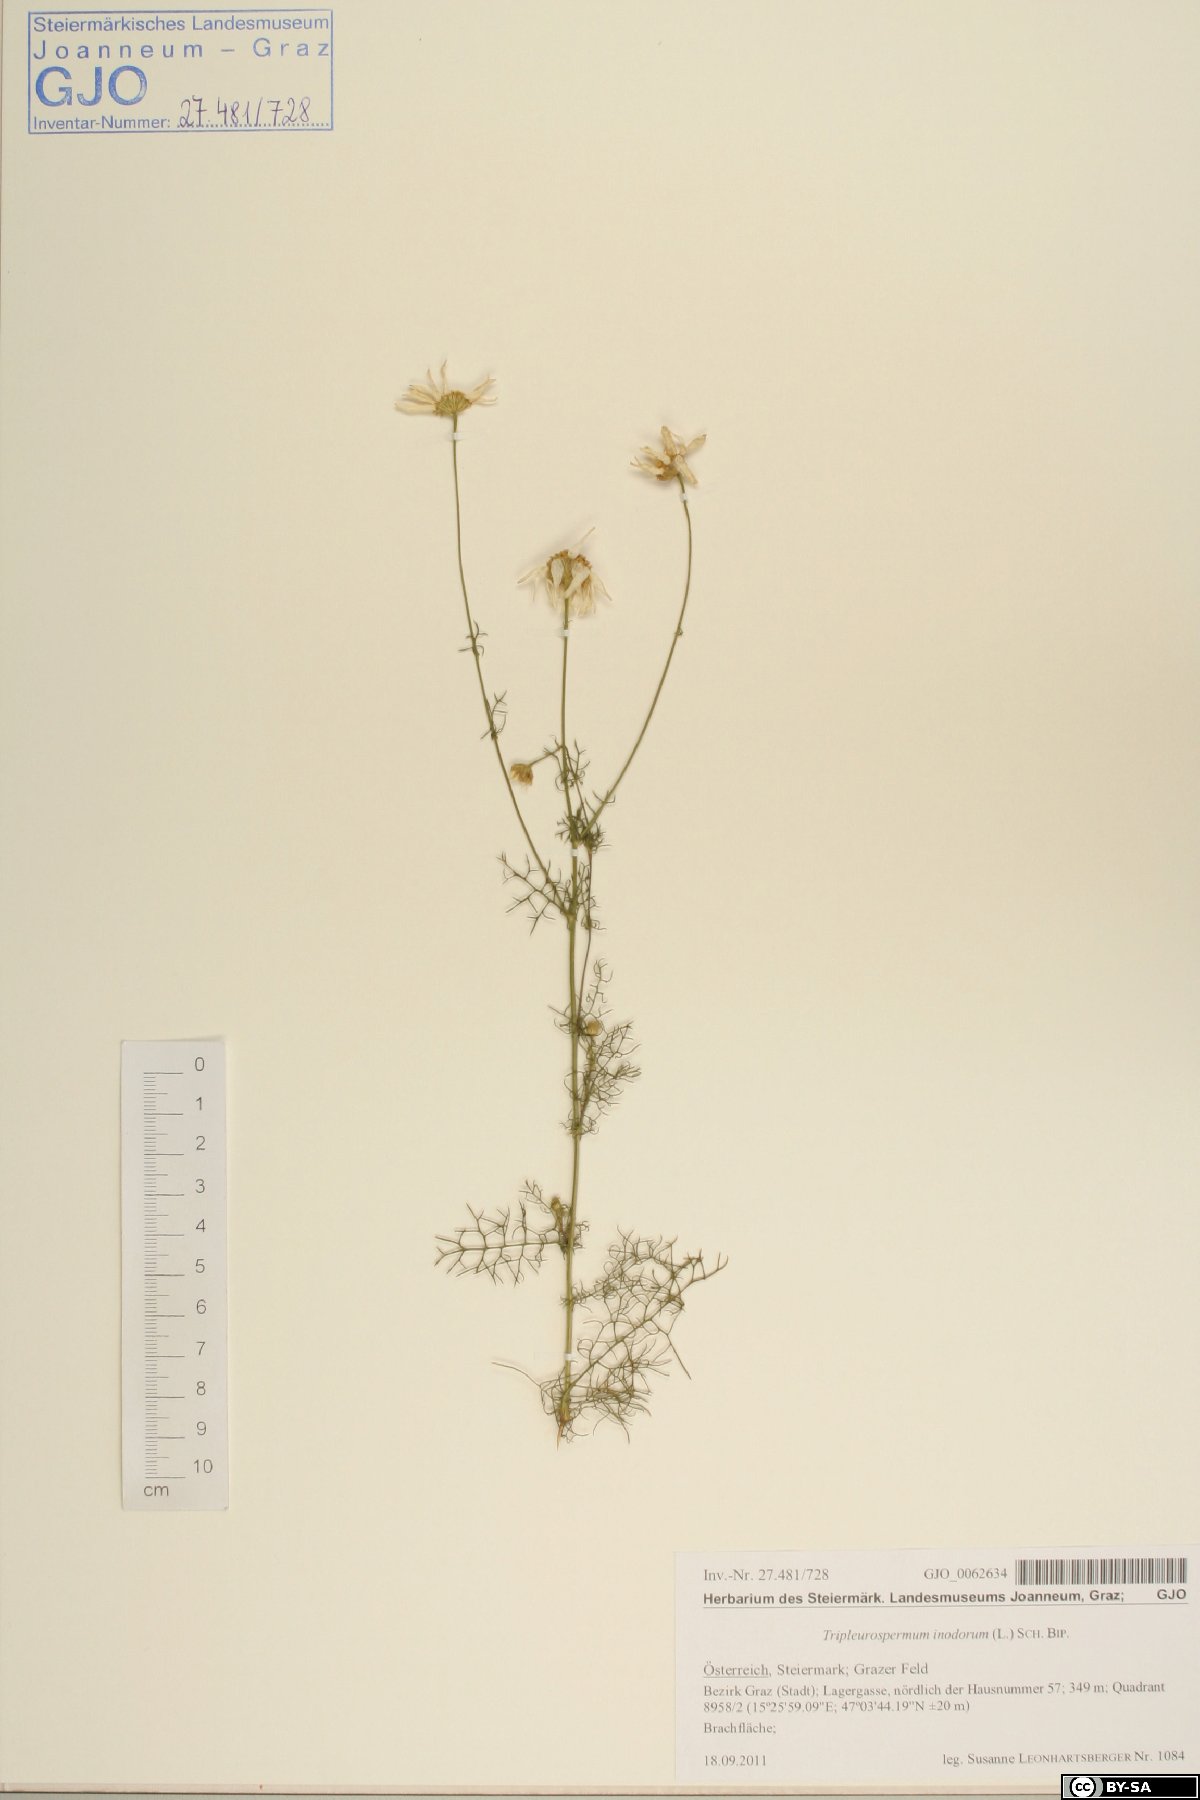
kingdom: Plantae
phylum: Tracheophyta
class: Magnoliopsida
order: Asterales
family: Asteraceae
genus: Tripleurospermum
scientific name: Tripleurospermum inodorum
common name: Scentless mayweed
